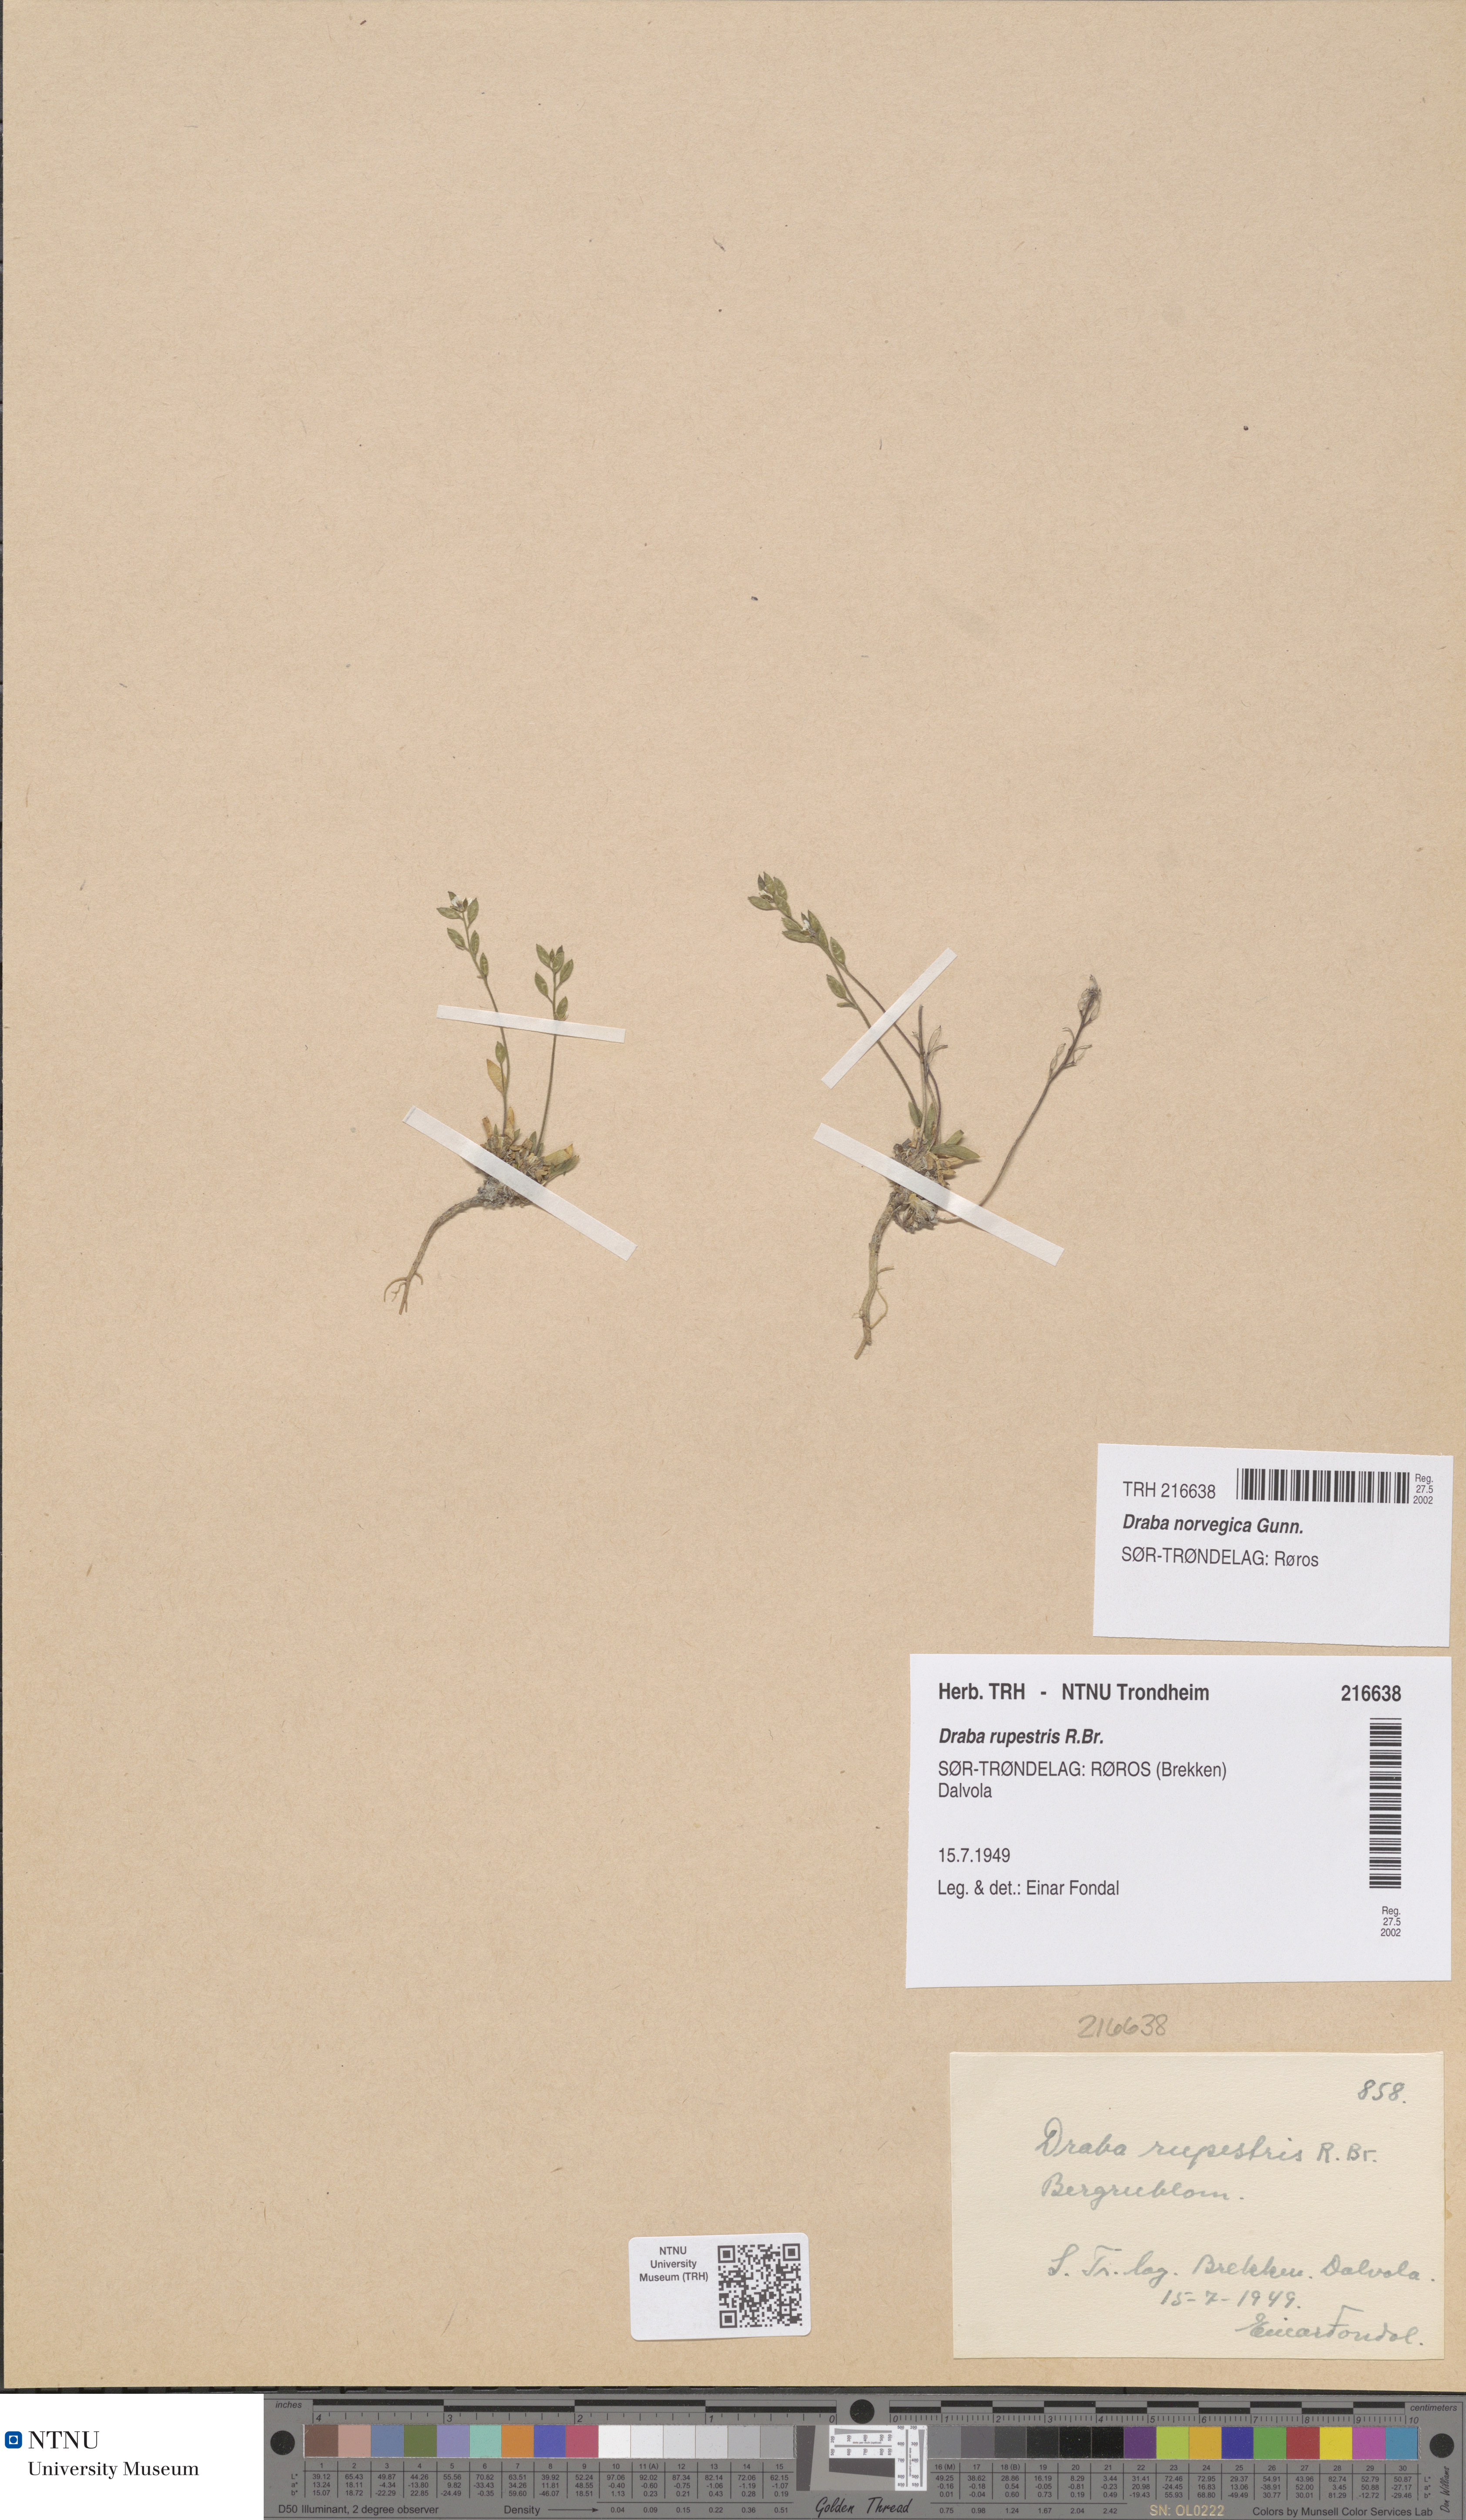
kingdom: Plantae
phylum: Tracheophyta
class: Magnoliopsida
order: Brassicales
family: Brassicaceae
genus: Draba
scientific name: Draba norvegica
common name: Rock whitlowgrass
